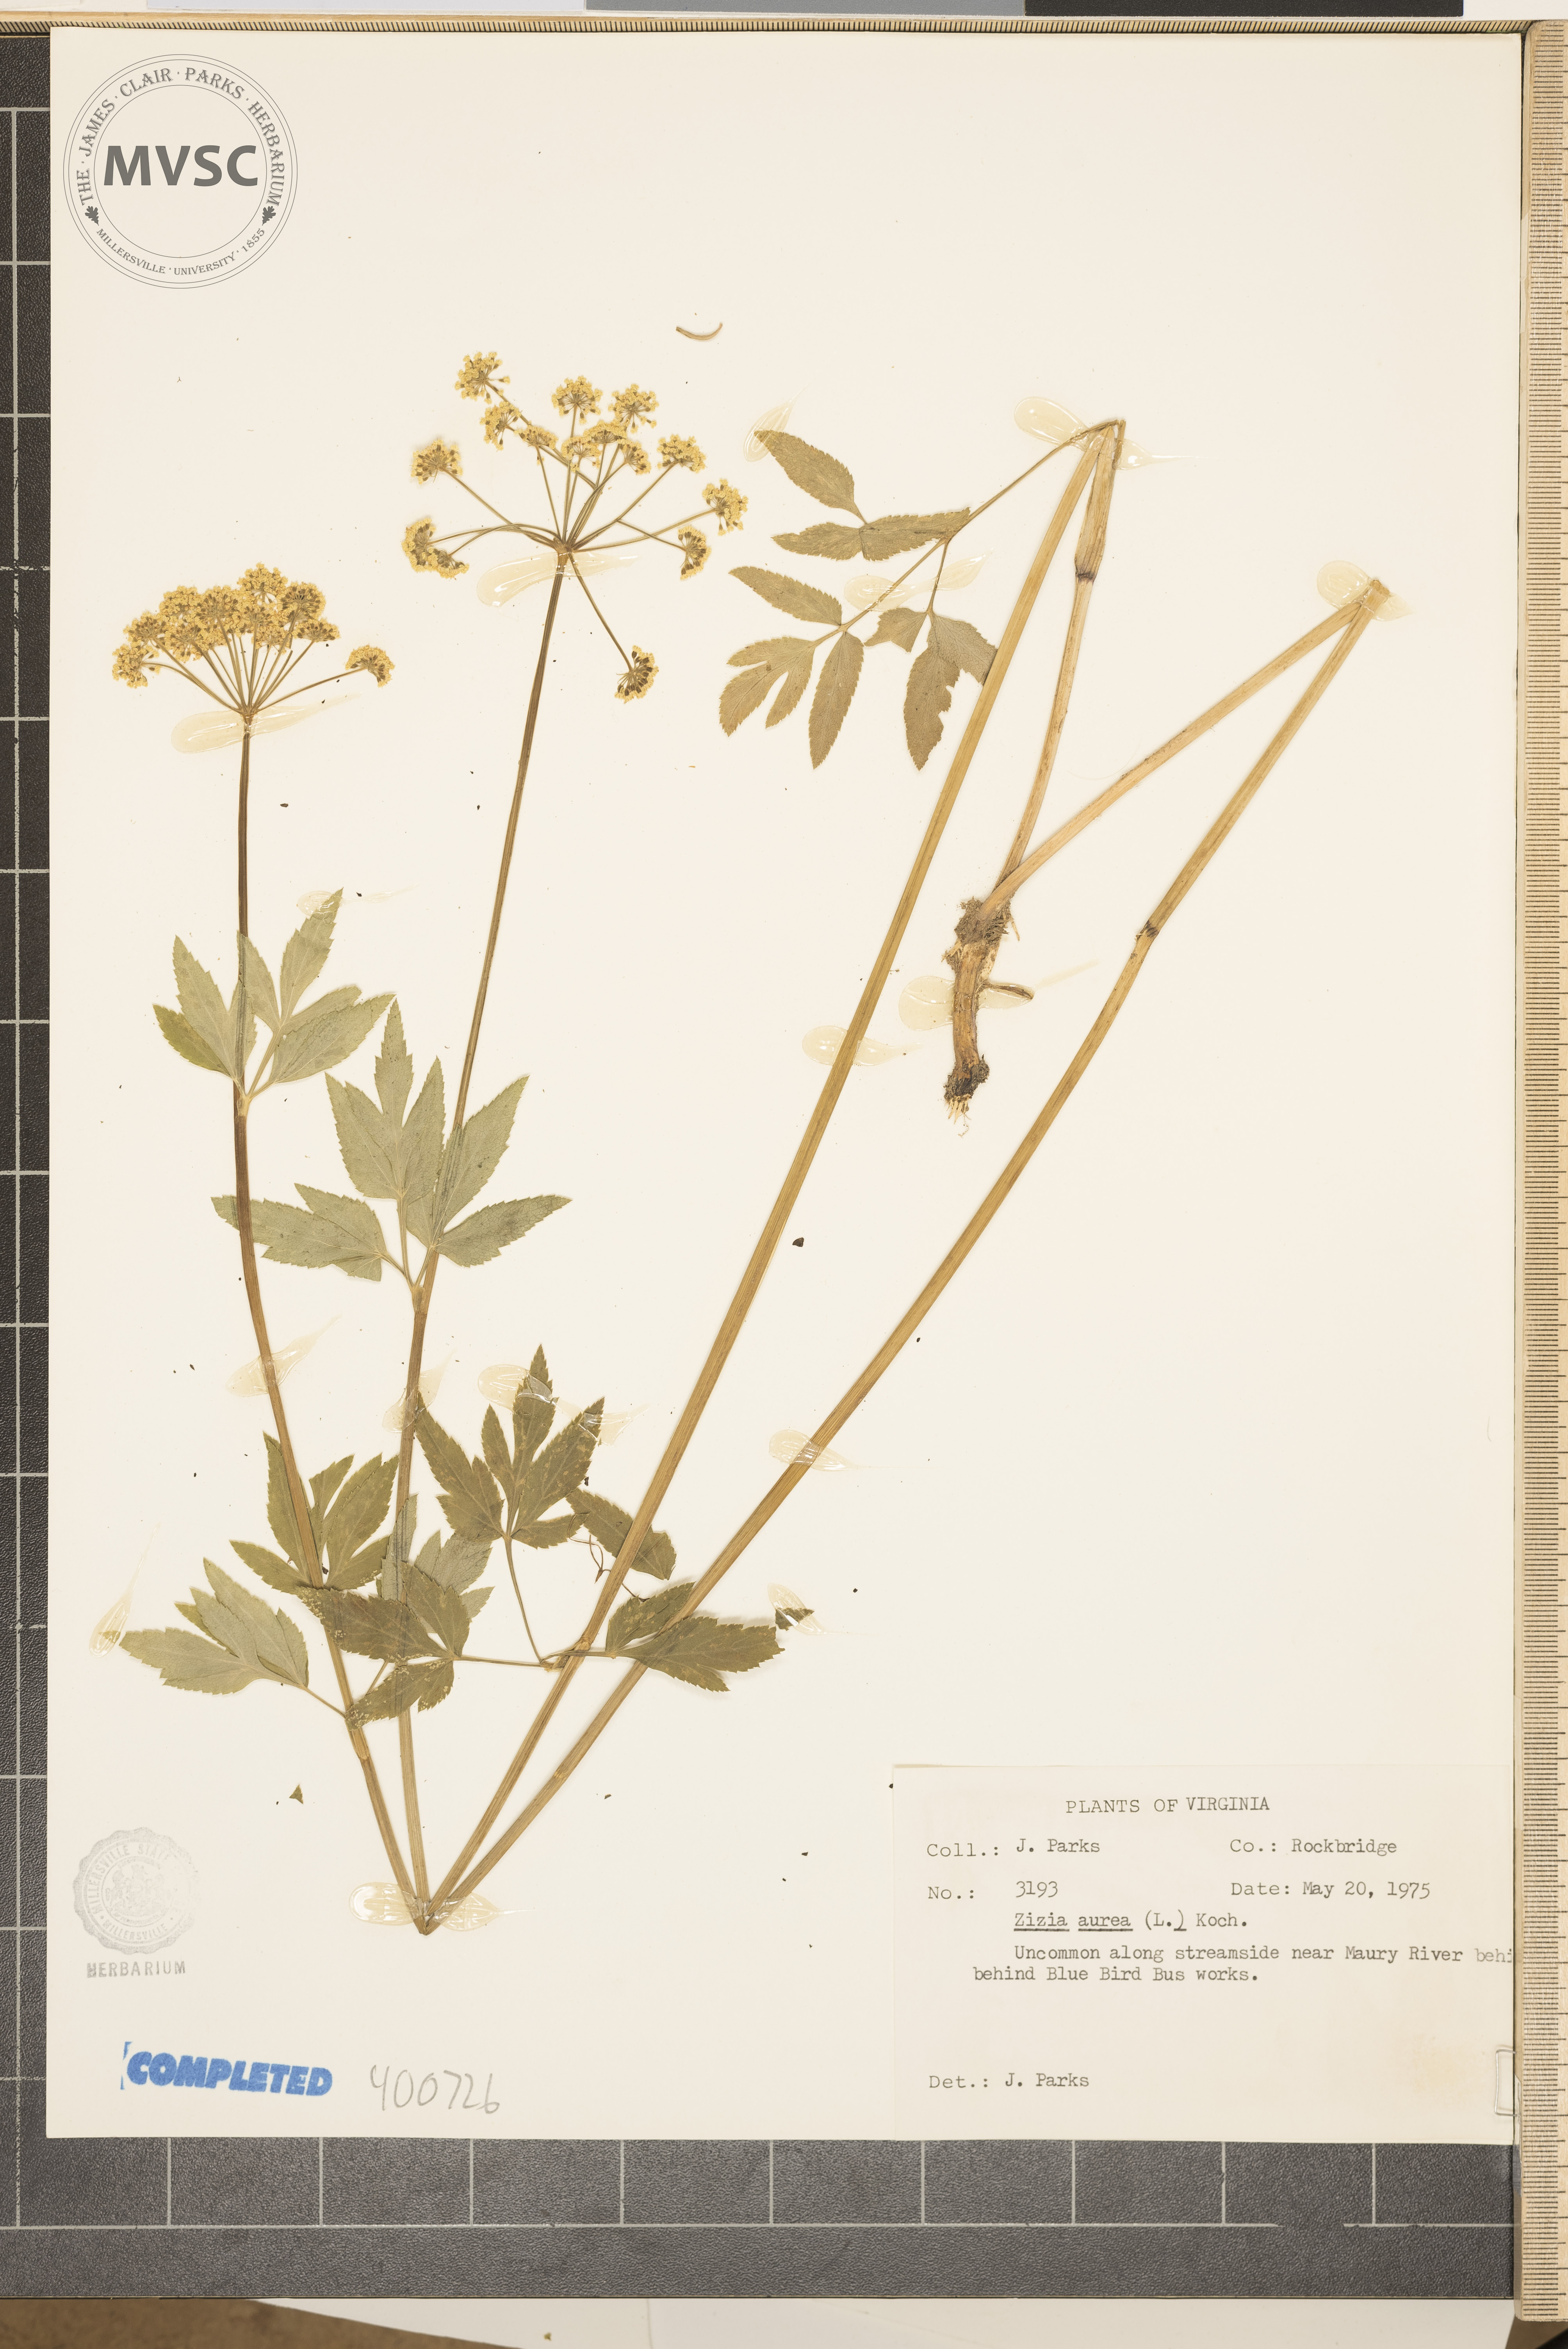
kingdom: Plantae
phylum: Tracheophyta
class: Magnoliopsida
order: Apiales
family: Apiaceae
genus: Zizia
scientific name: Zizia aurea
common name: Golden Zizia
